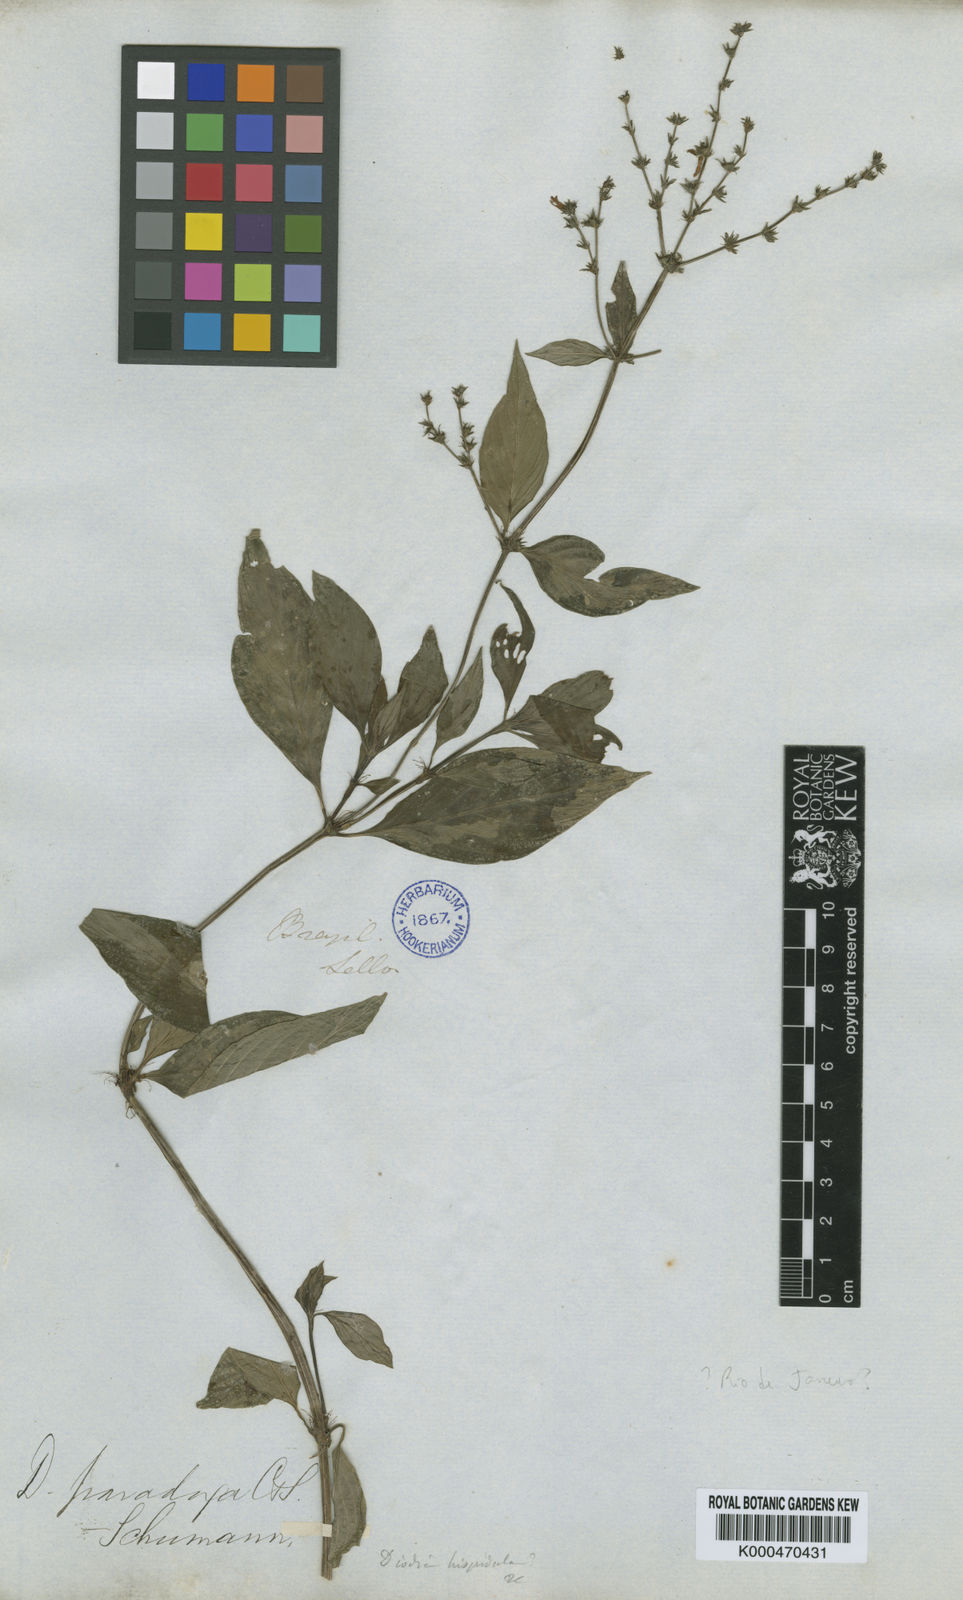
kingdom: Plantae
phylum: Tracheophyta
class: Magnoliopsida
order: Gentianales
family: Rubiaceae
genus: Galianthe
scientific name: Galianthe hispidula
